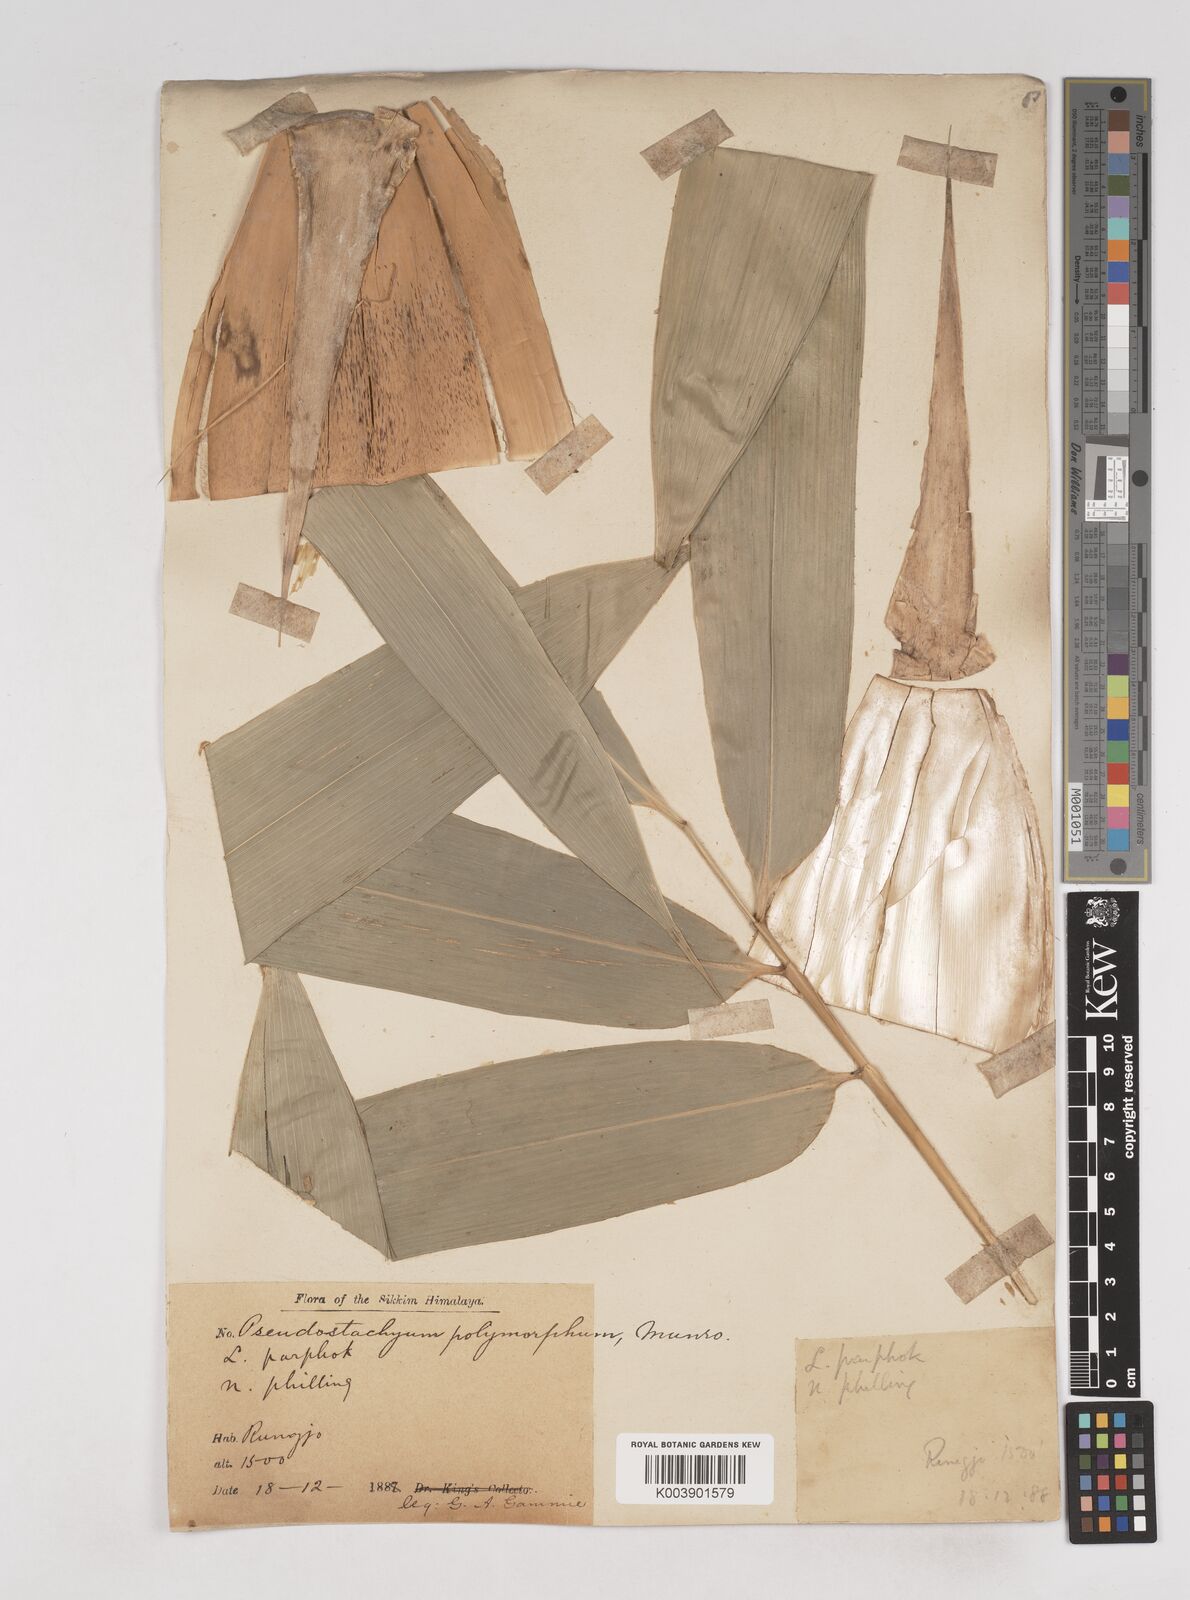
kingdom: Plantae
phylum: Tracheophyta
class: Liliopsida
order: Poales
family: Poaceae
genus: Pseudostachyum
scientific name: Pseudostachyum polymorphum
